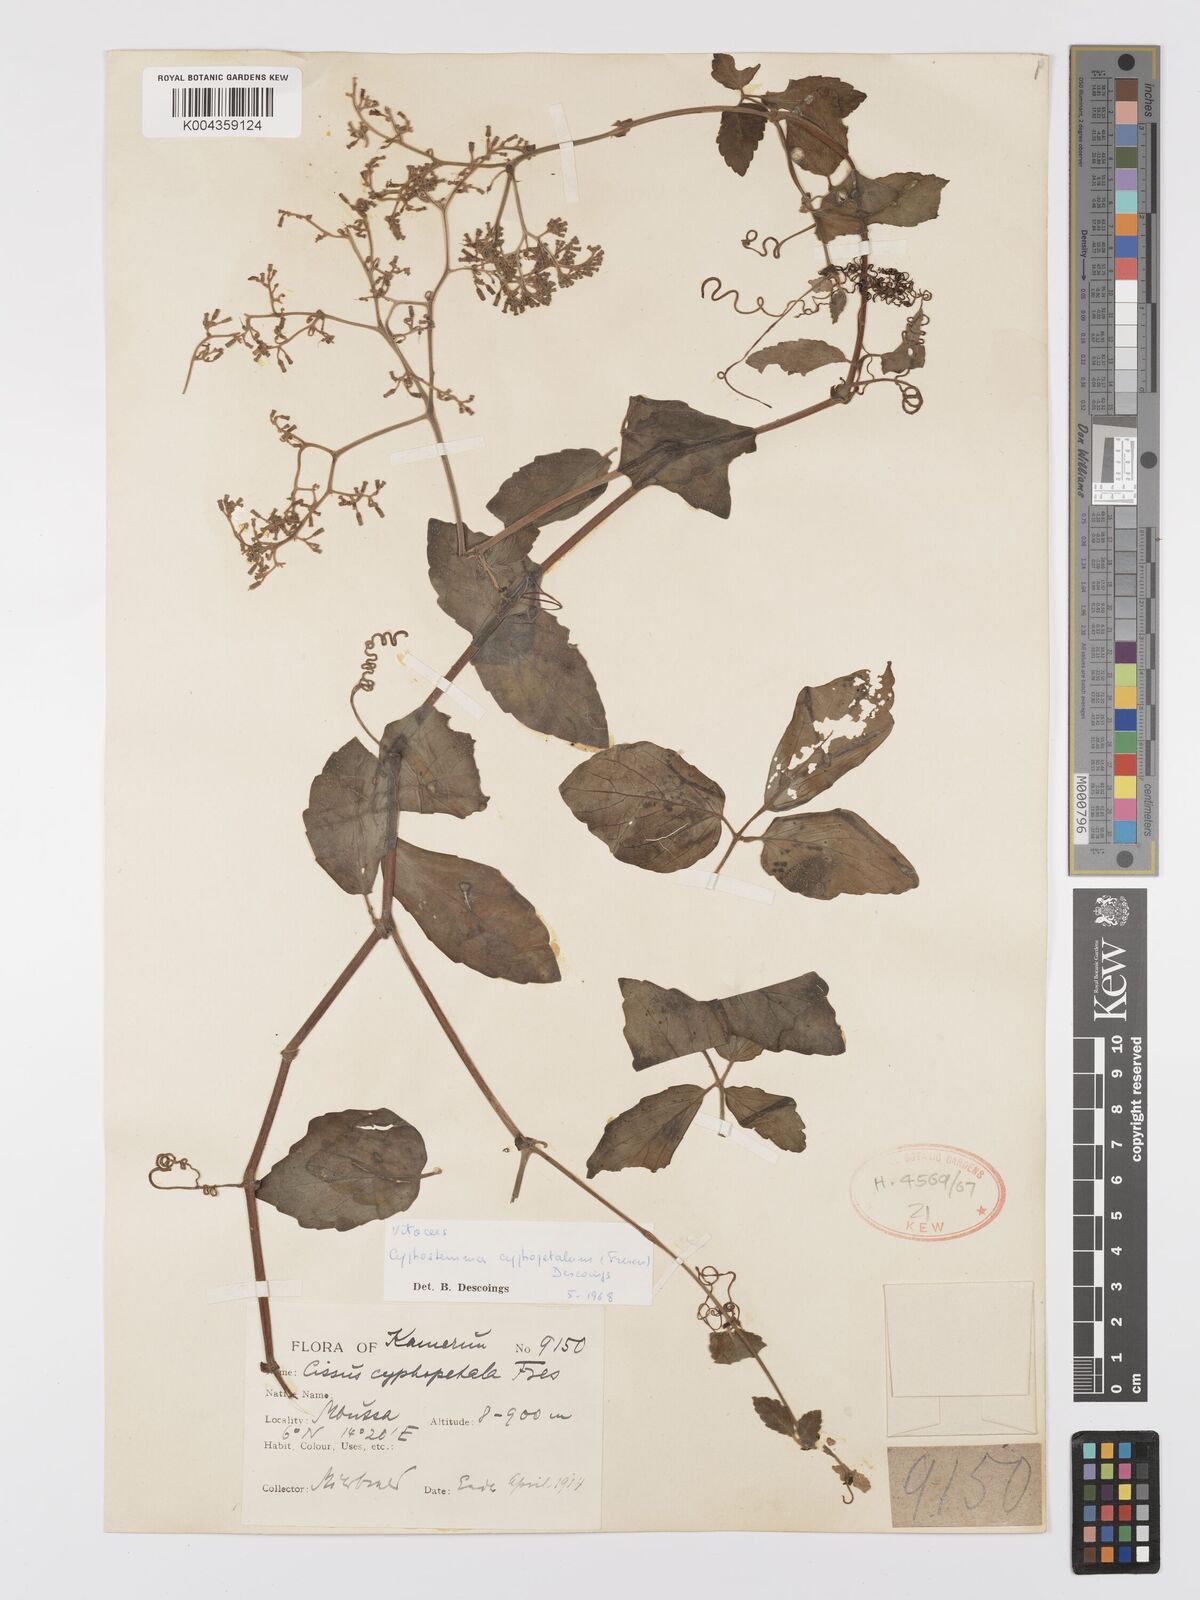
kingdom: Plantae
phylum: Tracheophyta
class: Magnoliopsida
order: Vitales
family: Vitaceae
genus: Cyphostemma
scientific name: Cyphostemma cyphopetalum
